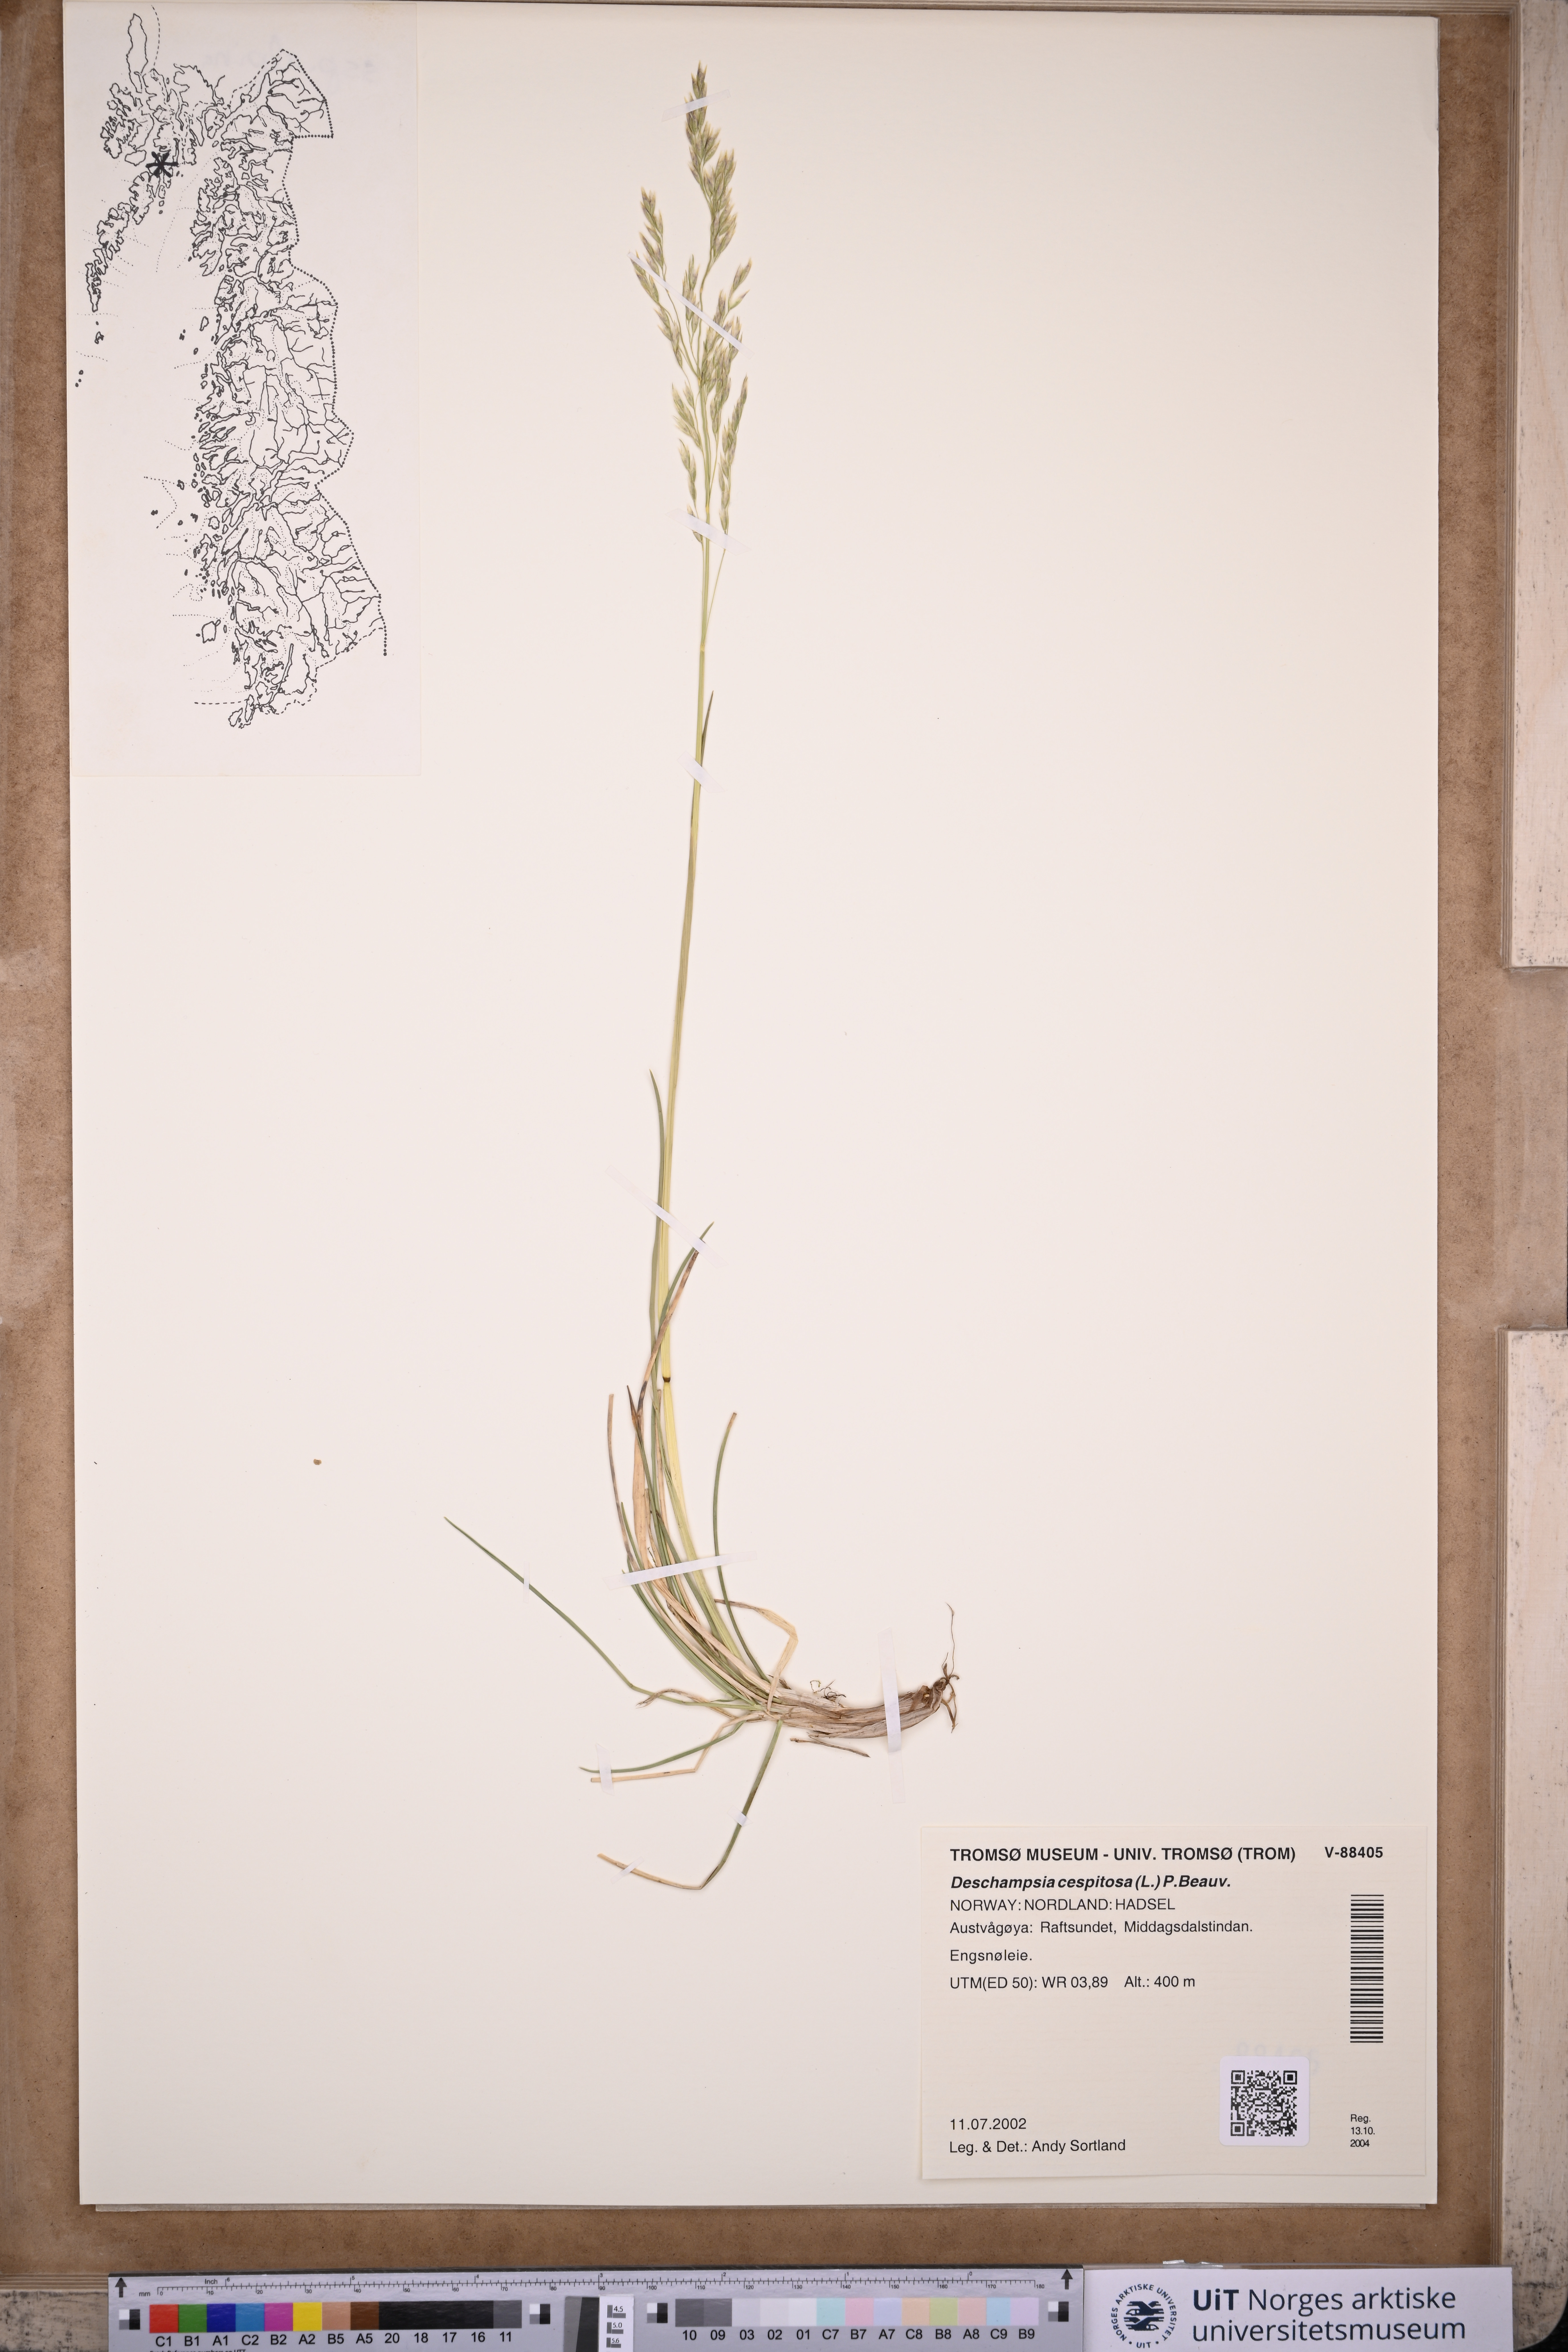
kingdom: Plantae
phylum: Tracheophyta
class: Liliopsida
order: Poales
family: Poaceae
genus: Deschampsia
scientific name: Deschampsia cespitosa
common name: Tufted hair-grass
